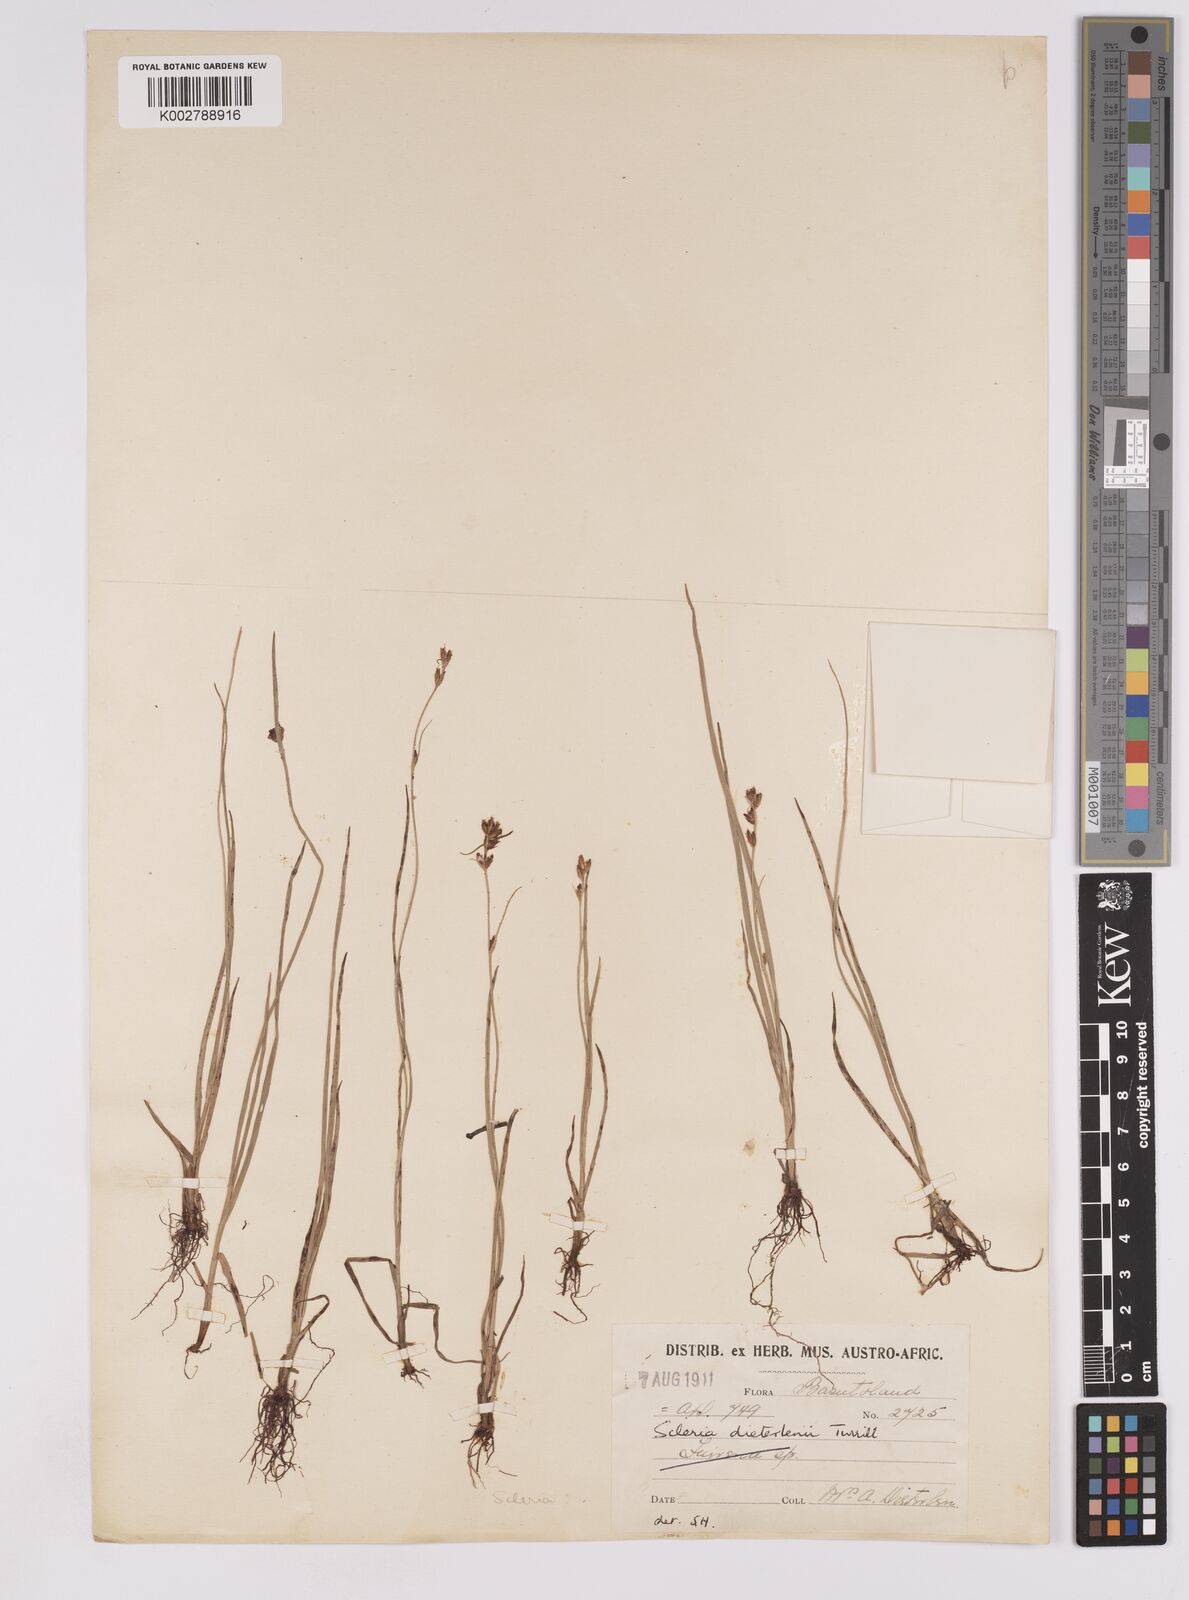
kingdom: Plantae
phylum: Tracheophyta
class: Liliopsida
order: Poales
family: Cyperaceae
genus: Scleria
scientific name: Scleria flexuosa
